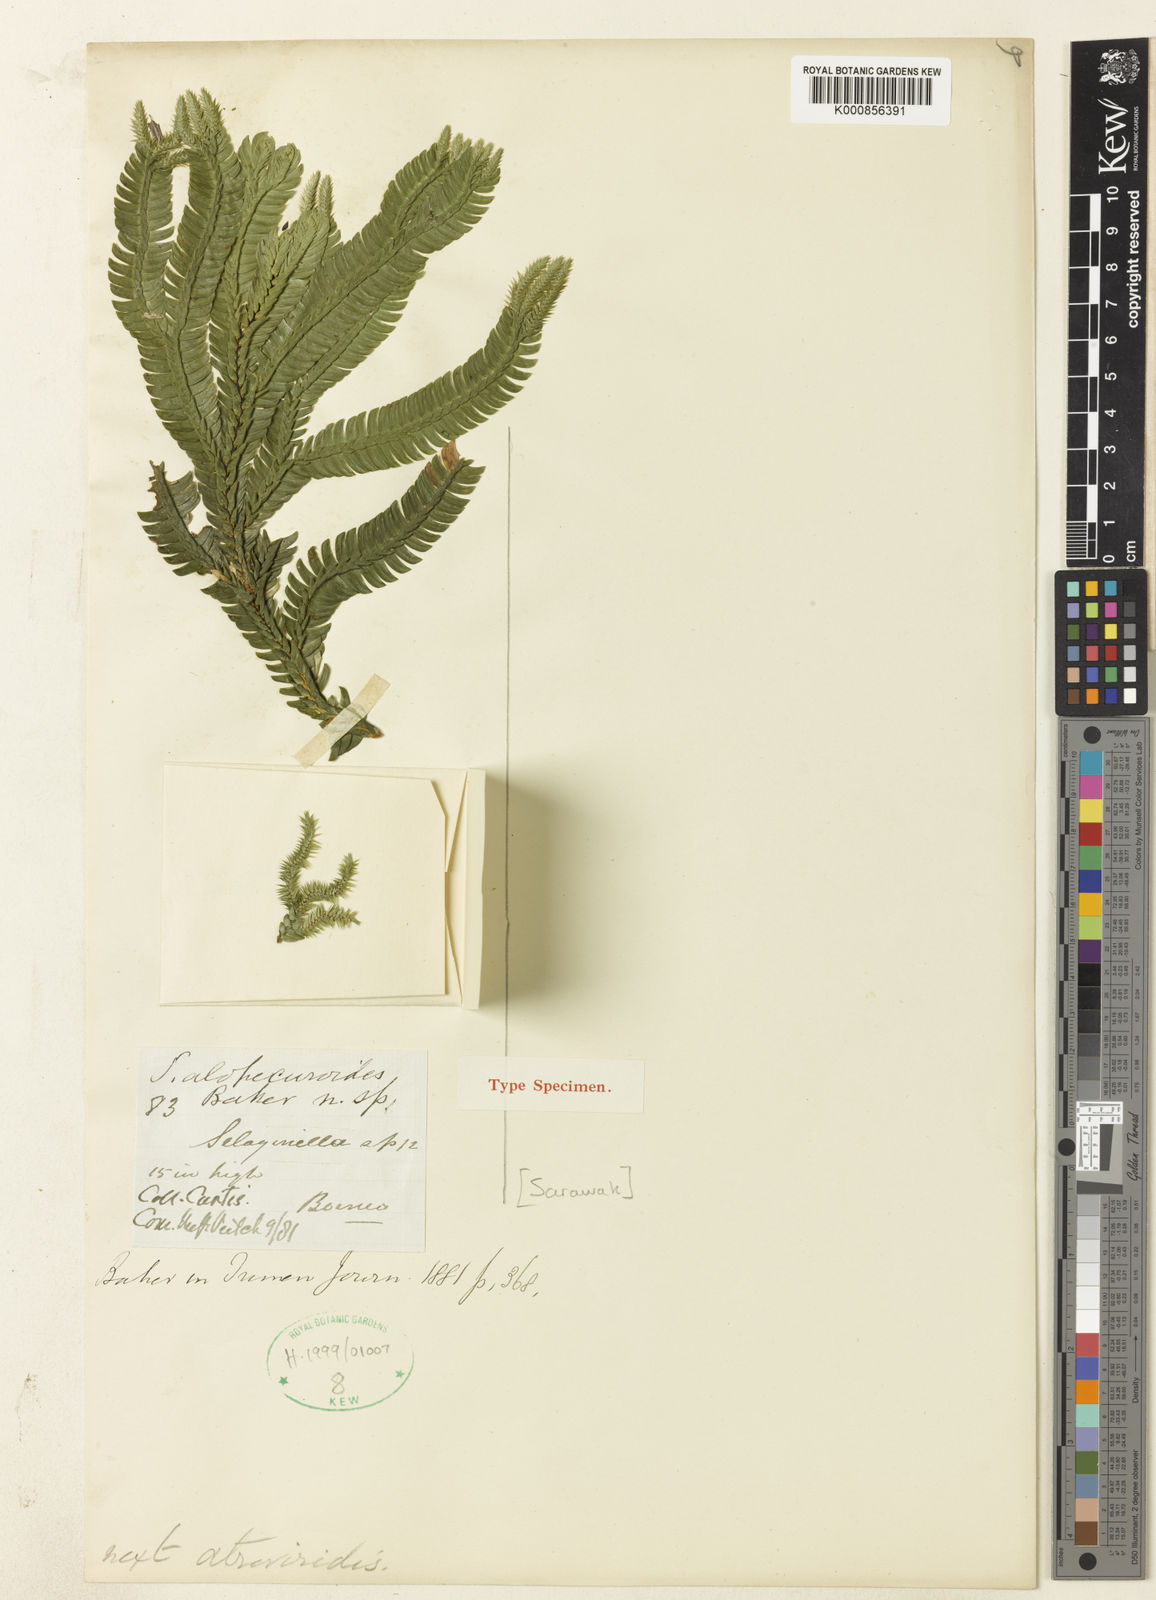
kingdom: Plantae
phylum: Tracheophyta
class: Lycopodiopsida
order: Selaginellales
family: Selaginellaceae
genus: Selaginella
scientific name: Selaginella alopecuroides
